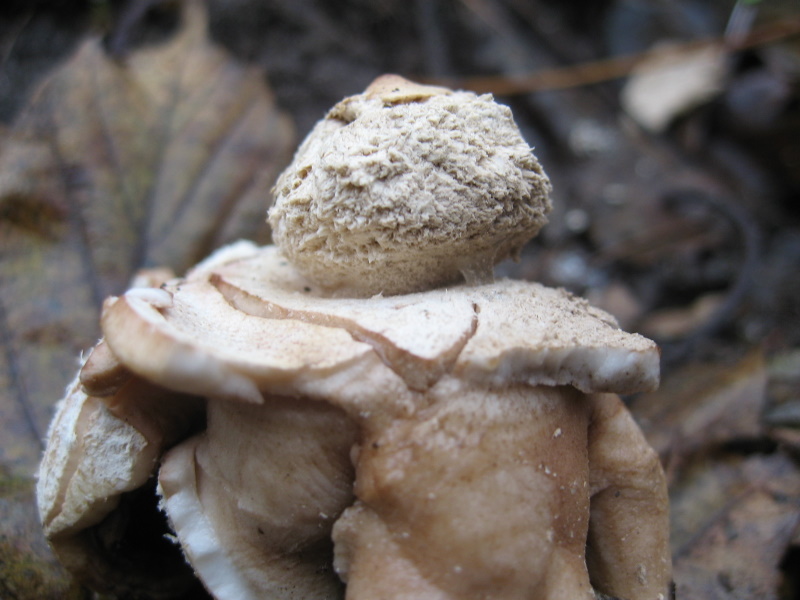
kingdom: Fungi
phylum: Basidiomycota
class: Agaricomycetes
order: Geastrales
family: Geastraceae
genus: Geastrum
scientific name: Geastrum michelianum
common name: kødet stjernebold
